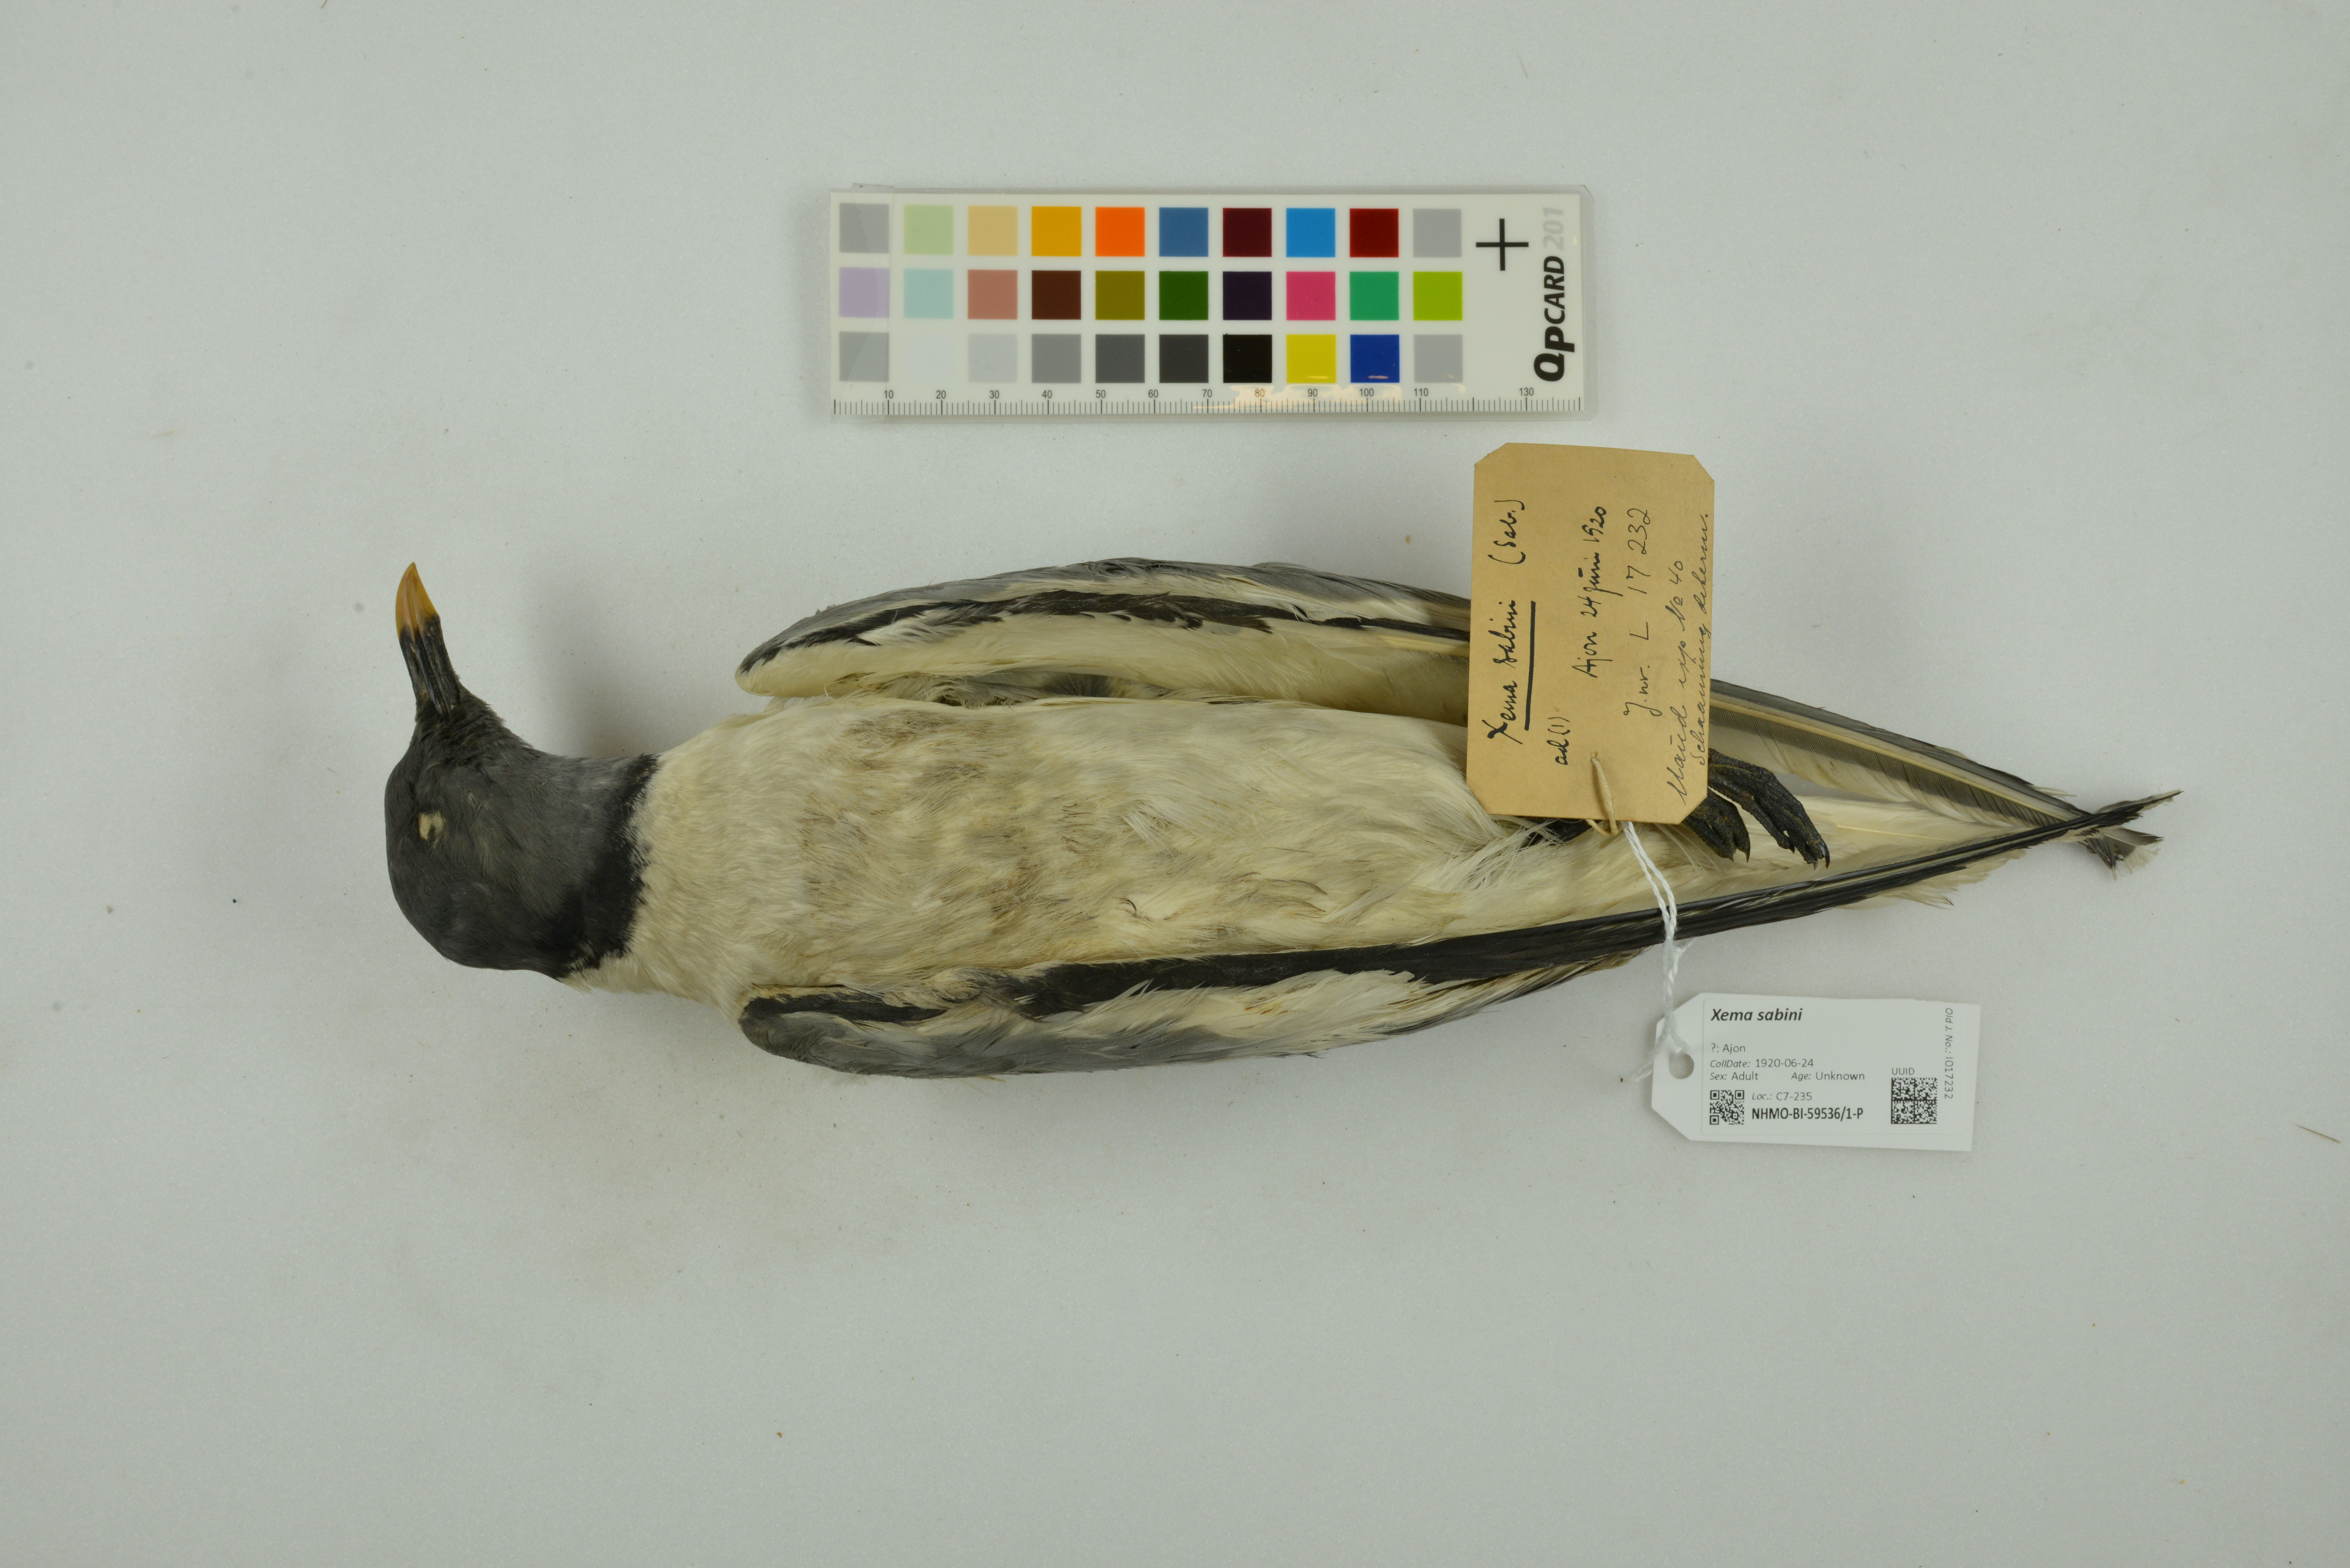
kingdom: Animalia
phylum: Chordata
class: Aves
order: Charadriiformes
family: Laridae
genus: Xema
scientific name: Xema sabini
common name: Sabine's gull
